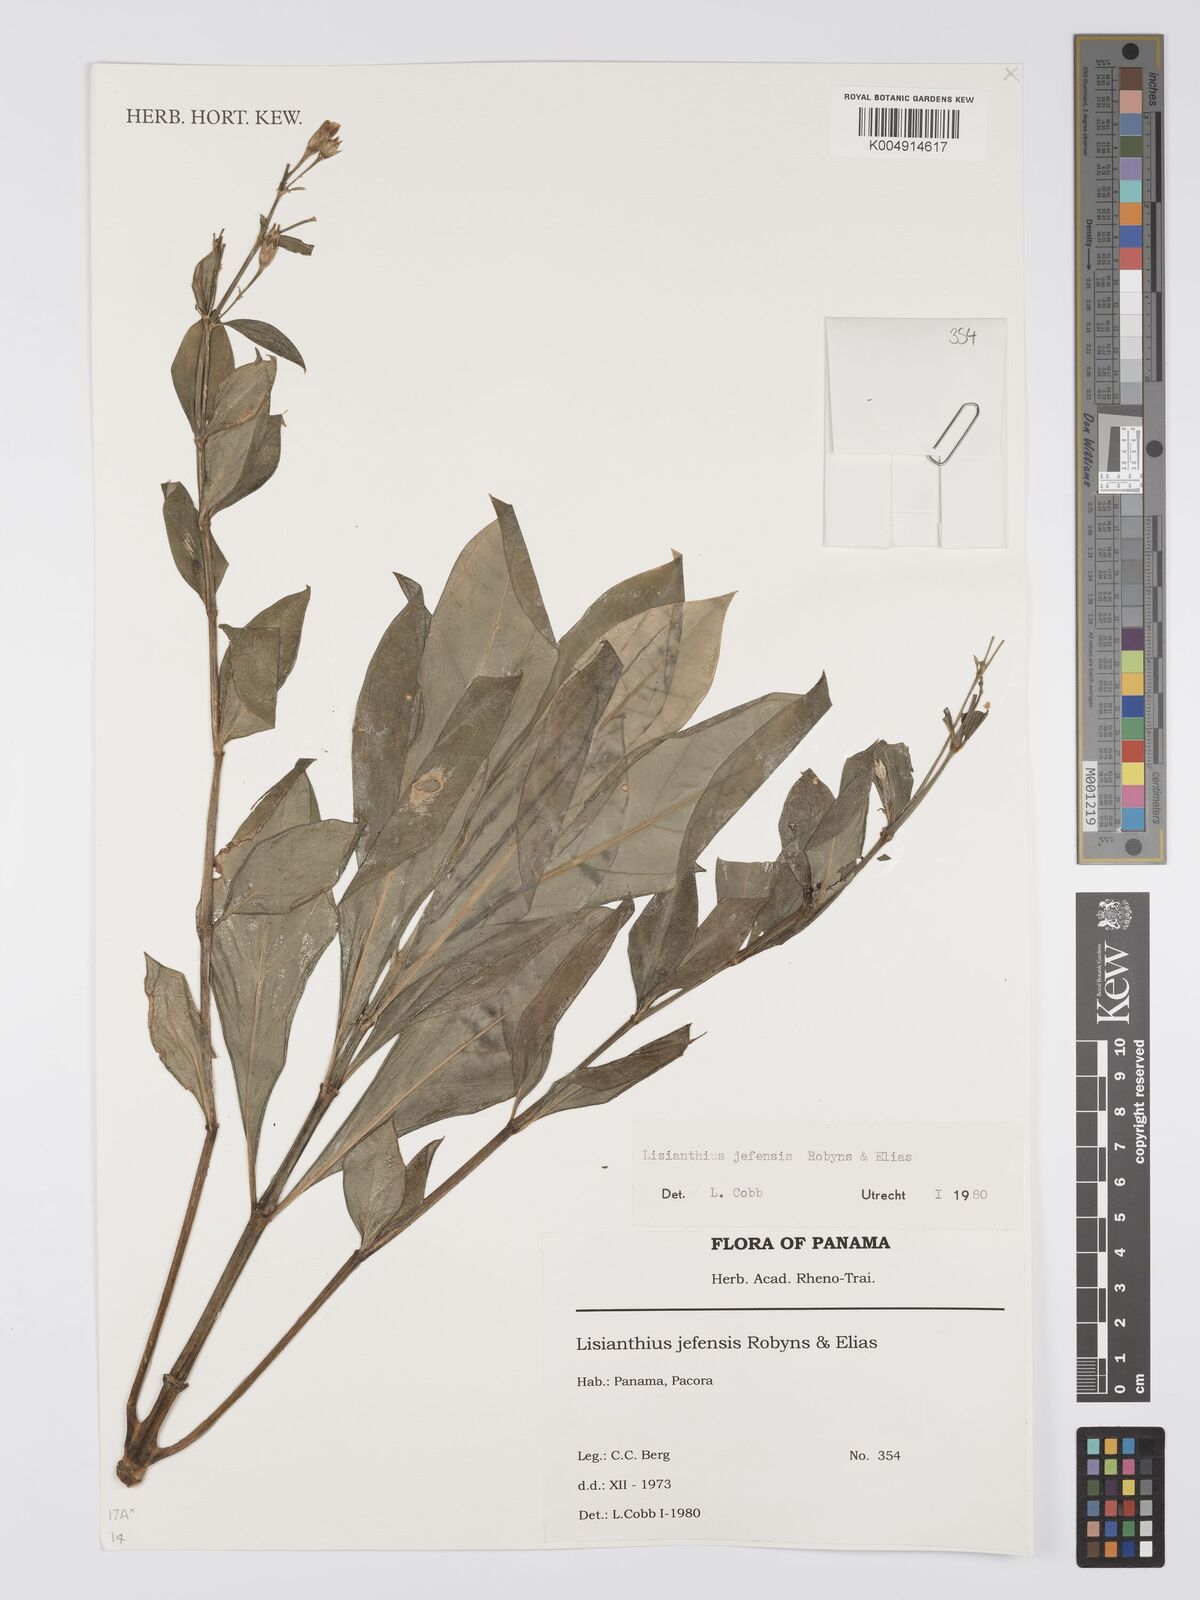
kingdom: Plantae
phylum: Tracheophyta
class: Magnoliopsida
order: Gentianales
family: Gentianaceae
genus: Lisianthius
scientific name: Lisianthius jefensis
